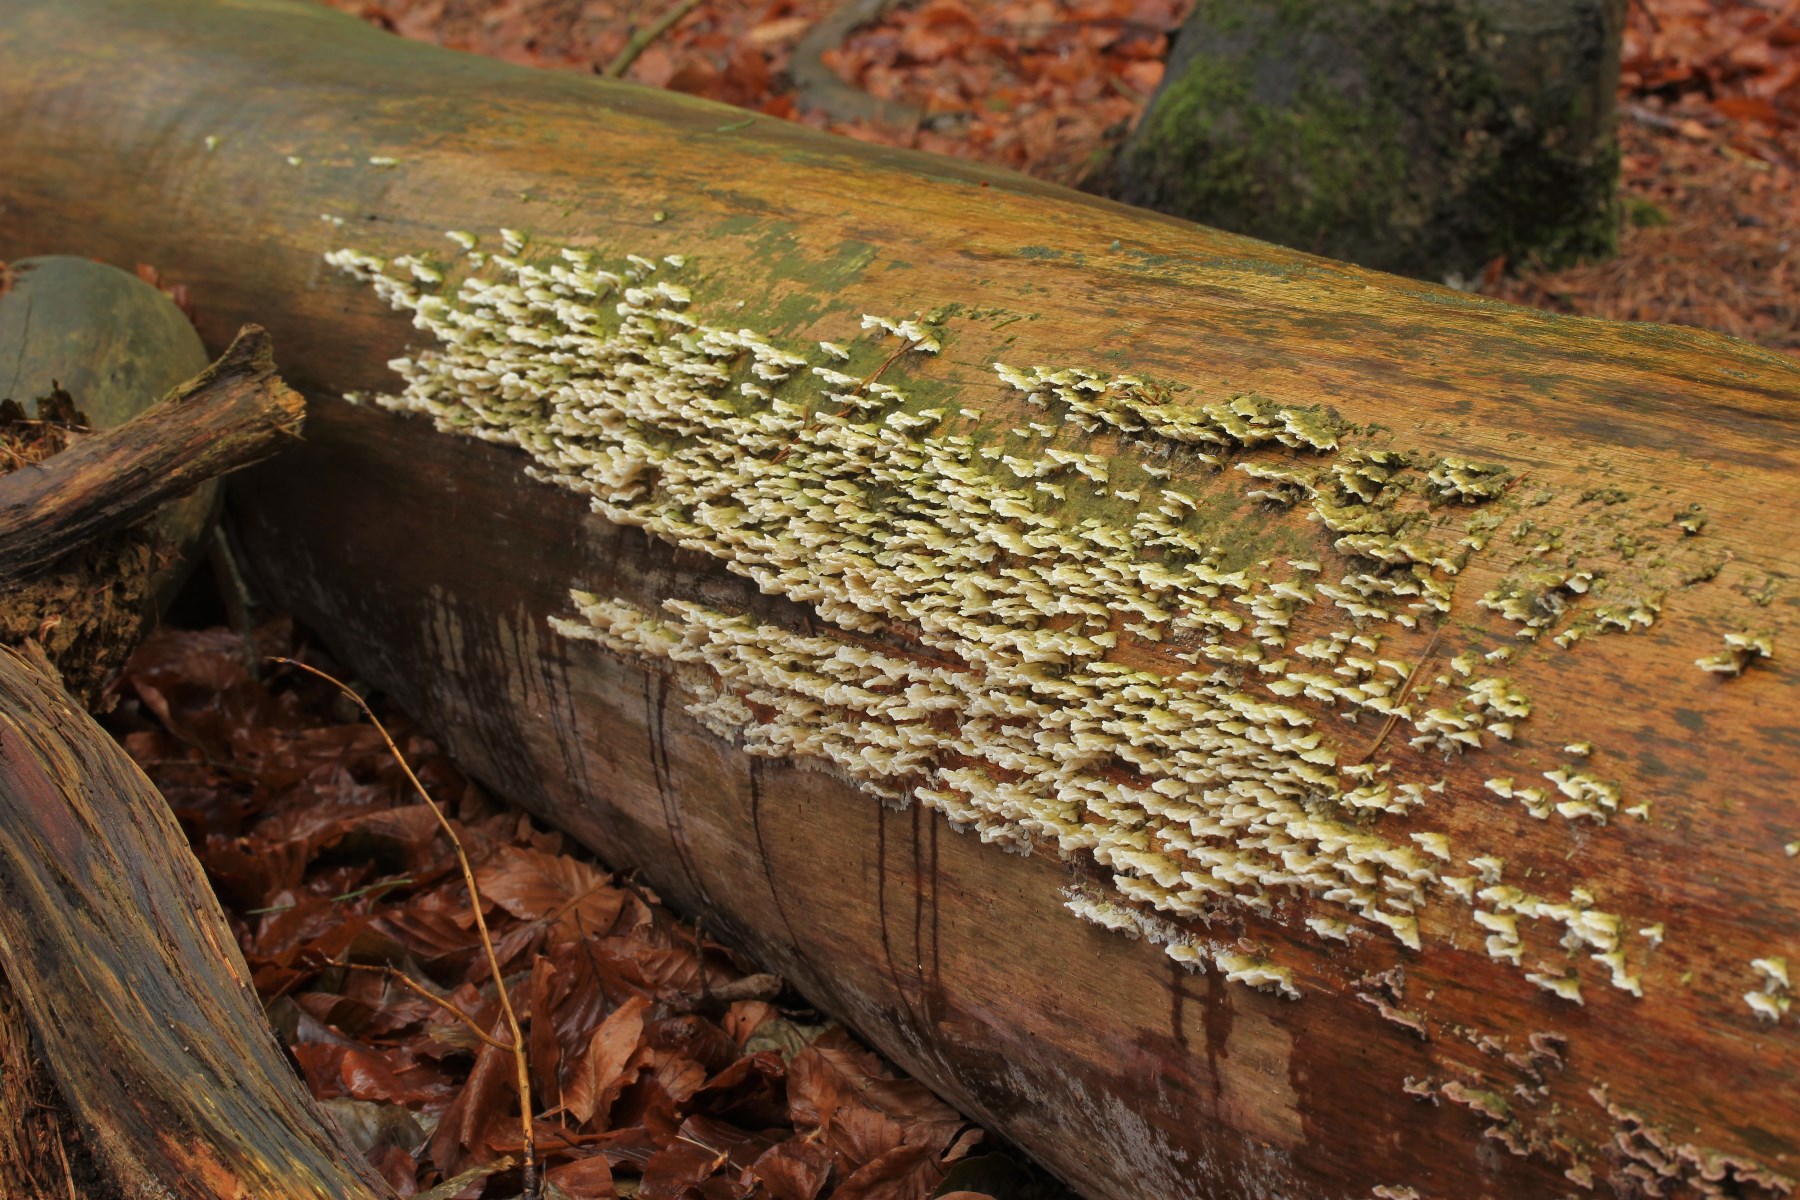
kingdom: Fungi
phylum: Basidiomycota
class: Agaricomycetes
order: Polyporales
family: Incrustoporiaceae
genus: Skeletocutis
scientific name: Skeletocutis carneogrisea
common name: rødgrå krystalporesvamp
